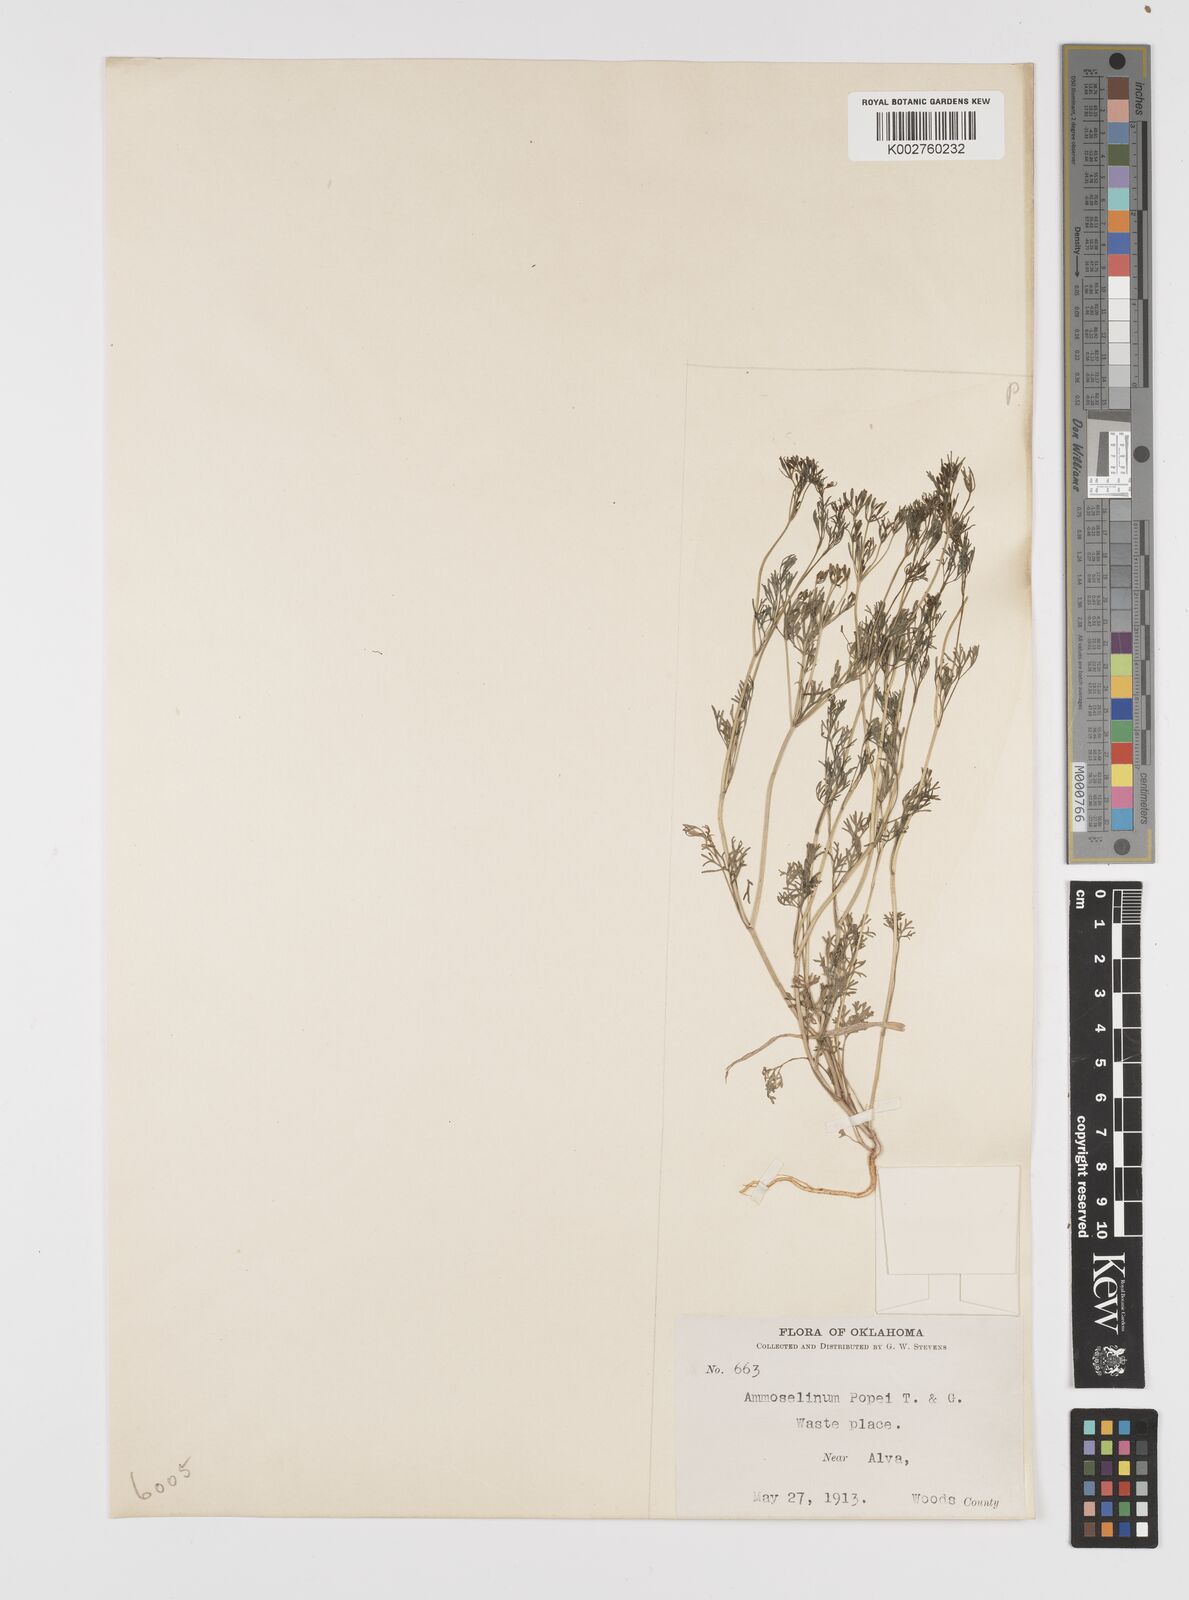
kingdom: Plantae
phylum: Tracheophyta
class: Magnoliopsida
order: Apiales
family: Apiaceae
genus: Ammoselinum
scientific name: Ammoselinum popei
